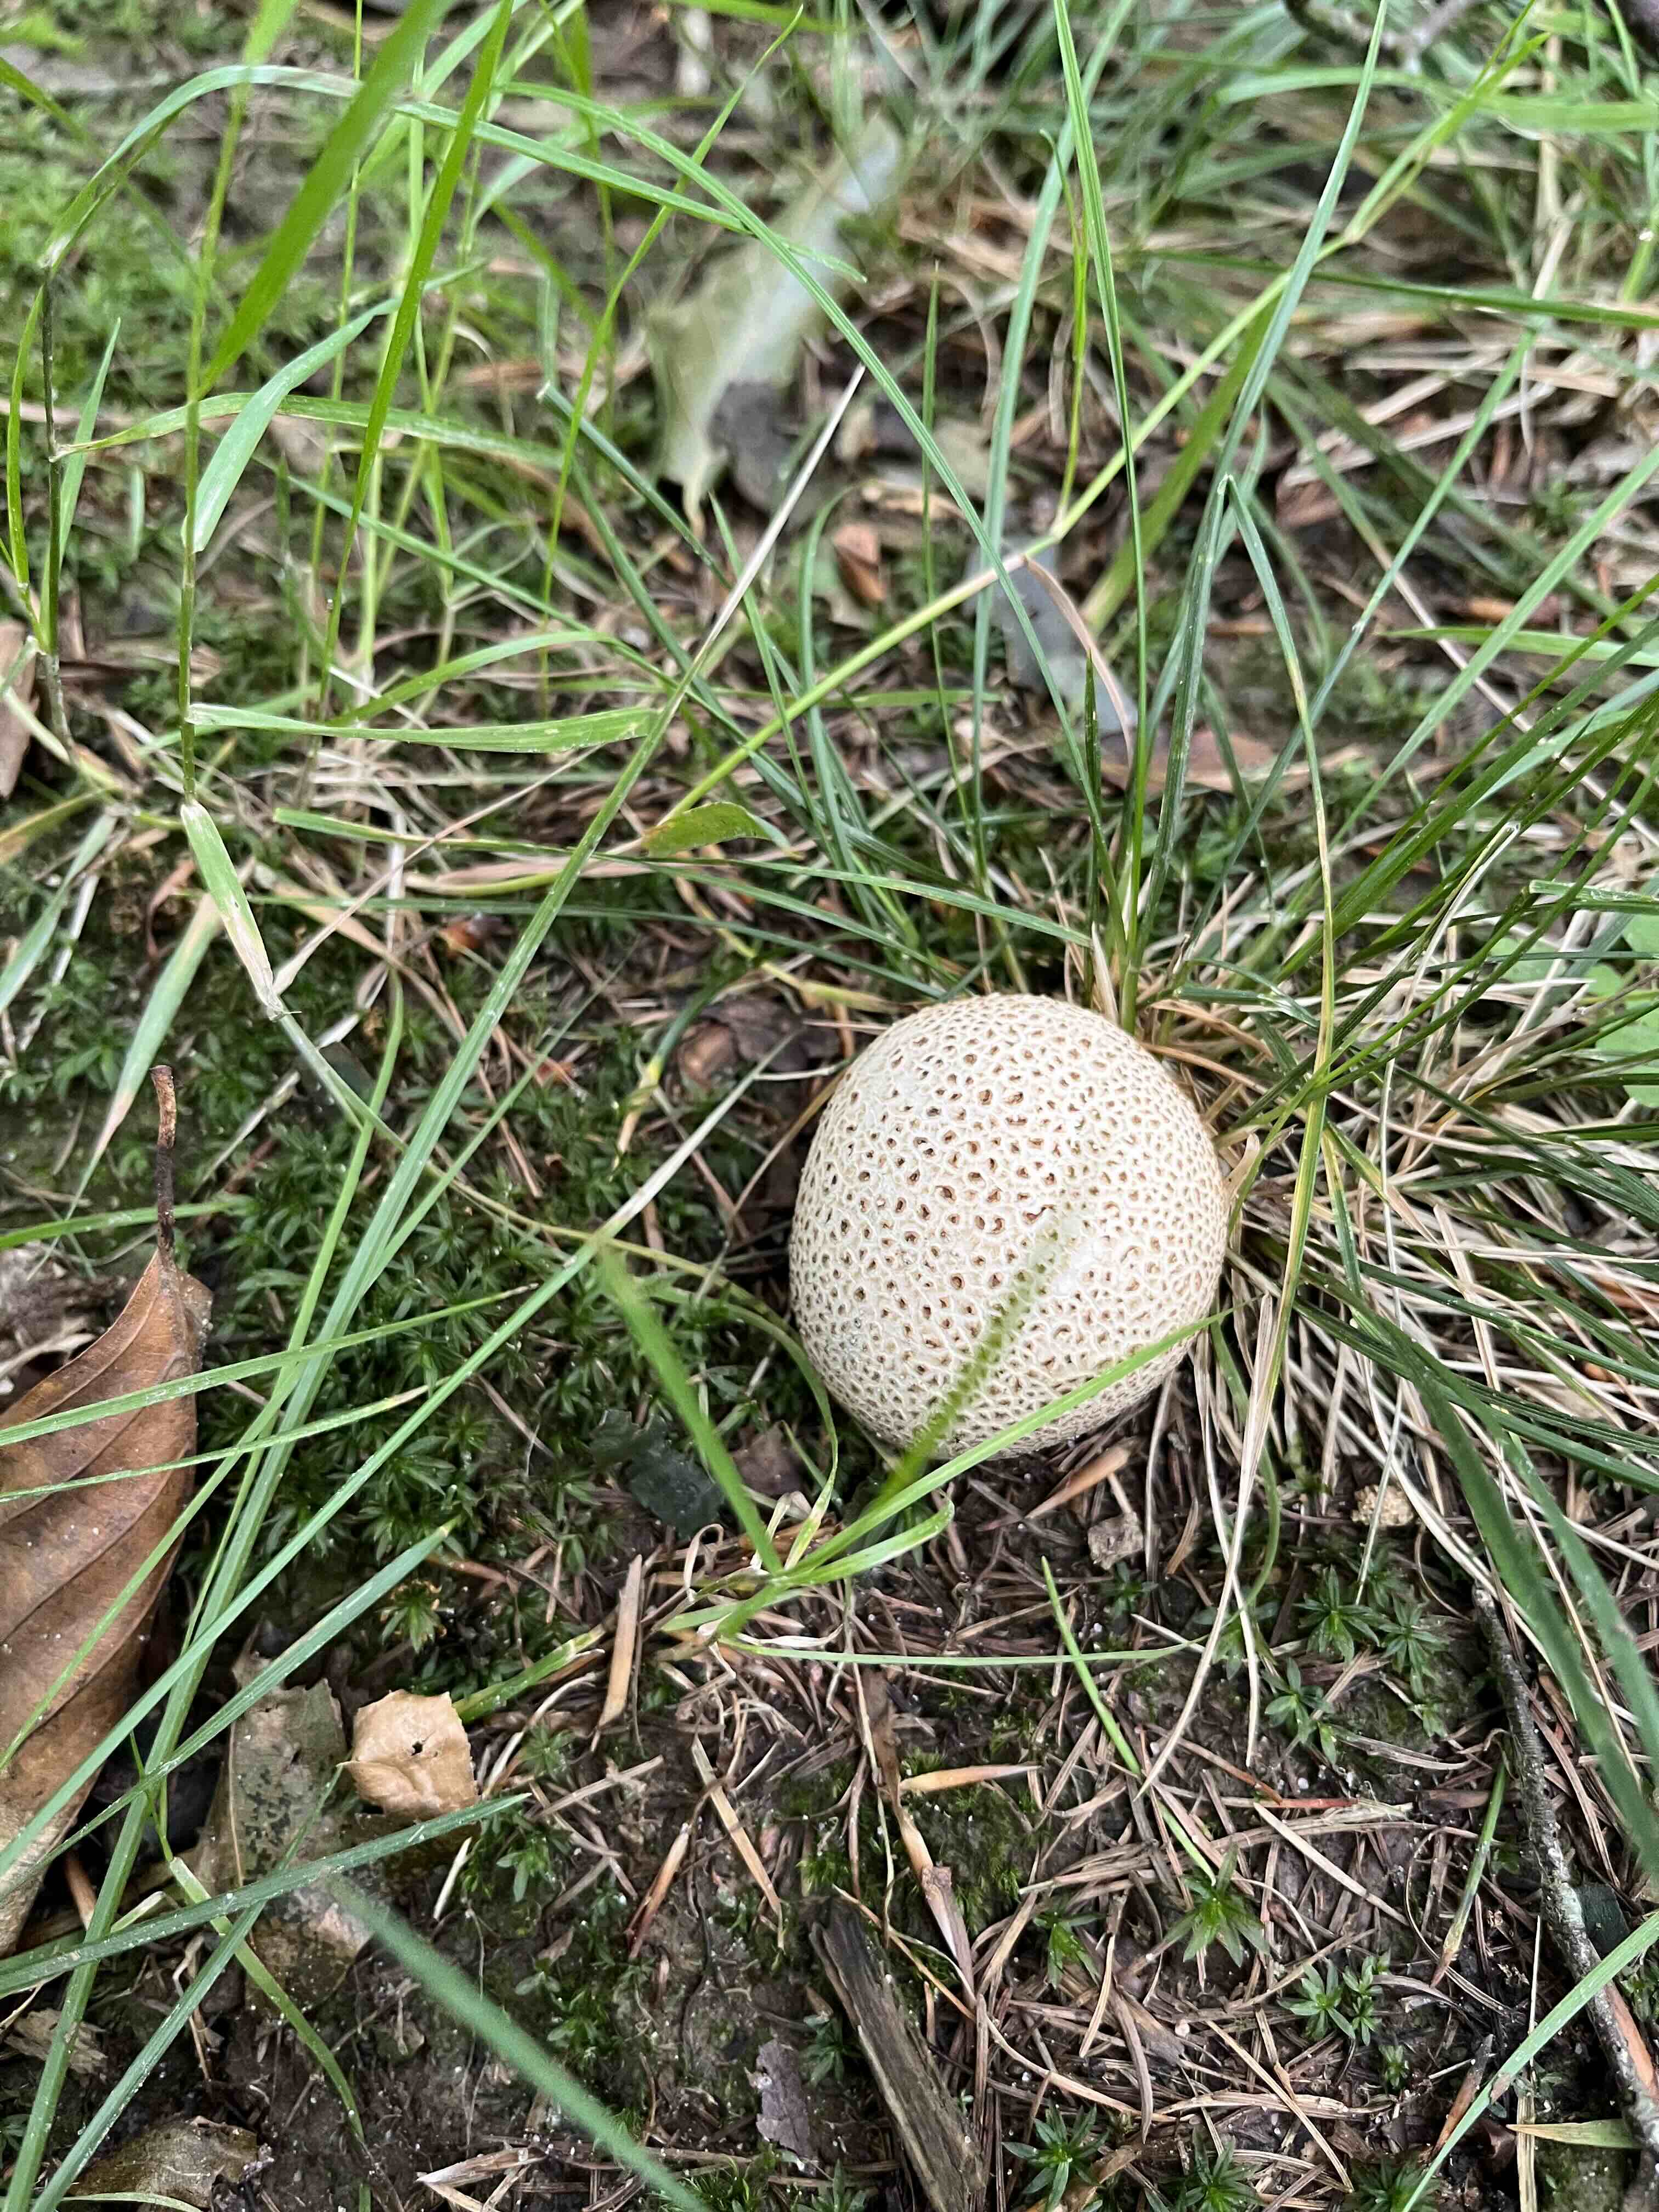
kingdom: Fungi
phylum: Basidiomycota
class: Agaricomycetes
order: Boletales
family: Sclerodermataceae
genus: Scleroderma
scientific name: Scleroderma citrinum
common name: almindelig bruskbold
